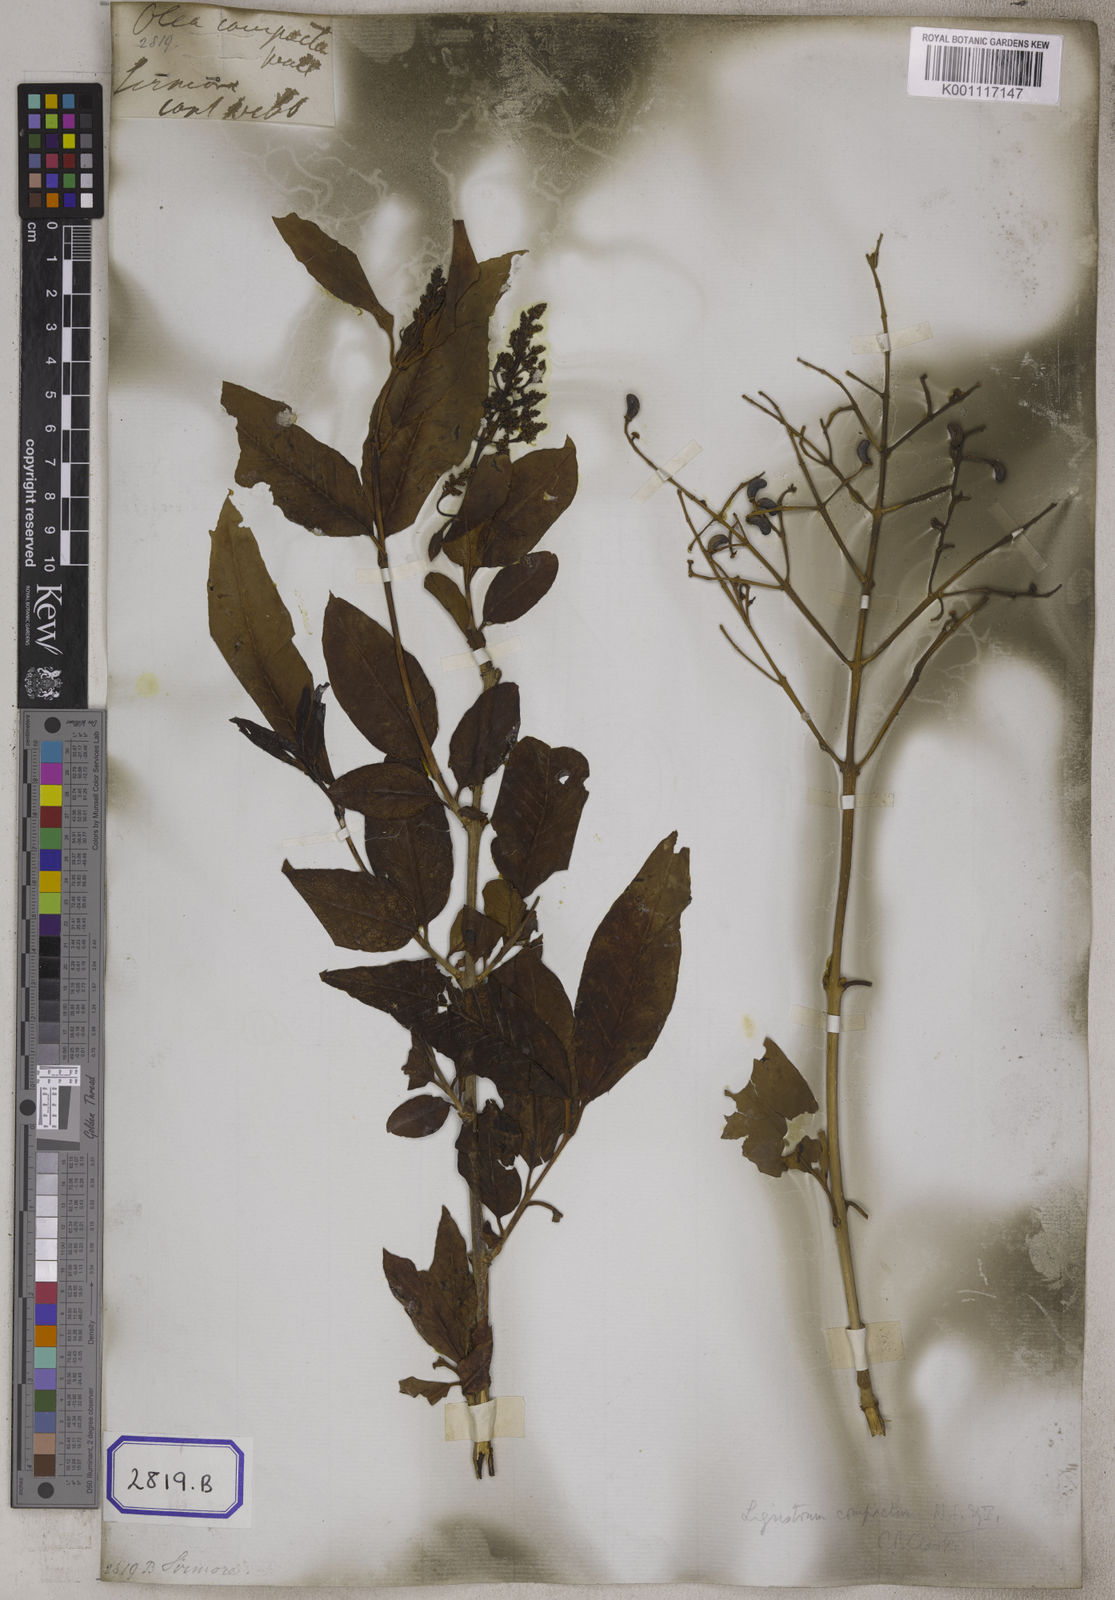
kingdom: Plantae
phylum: Tracheophyta
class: Magnoliopsida
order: Lamiales
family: Oleaceae
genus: Olea
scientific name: Olea
